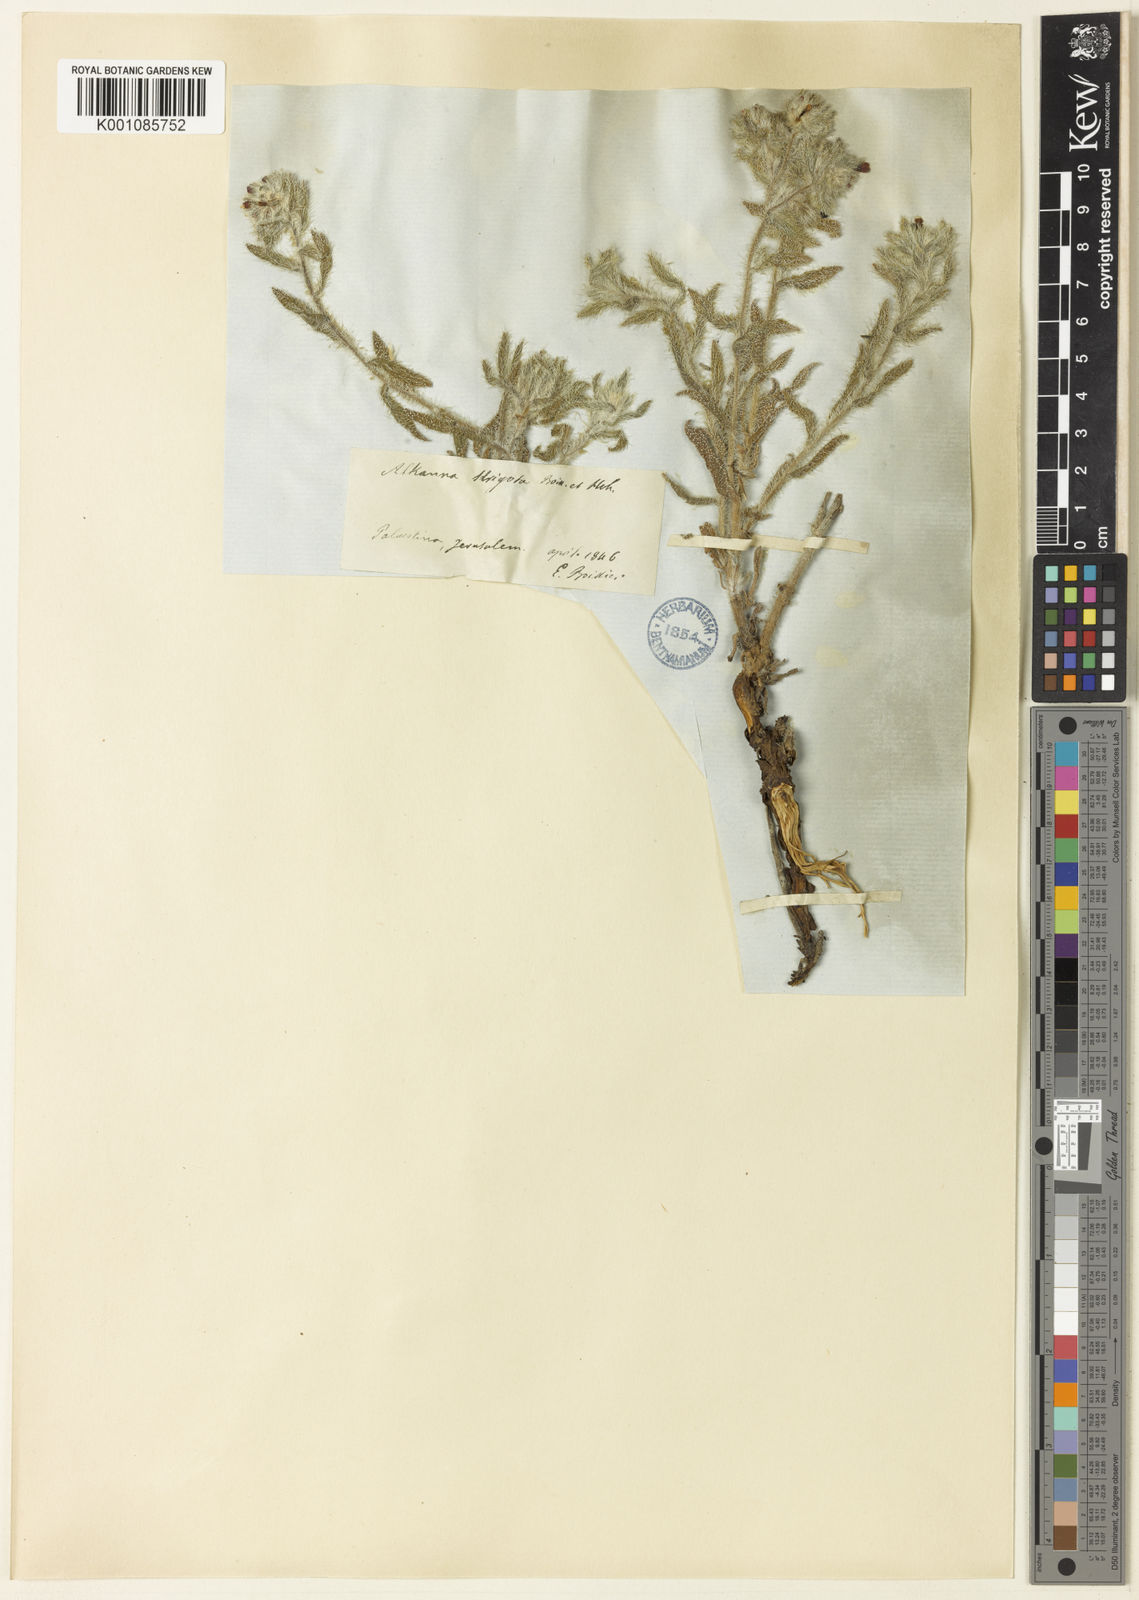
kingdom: Plantae
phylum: Tracheophyta
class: Magnoliopsida
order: Boraginales
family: Boraginaceae
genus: Alkanna
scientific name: Alkanna strigosa
